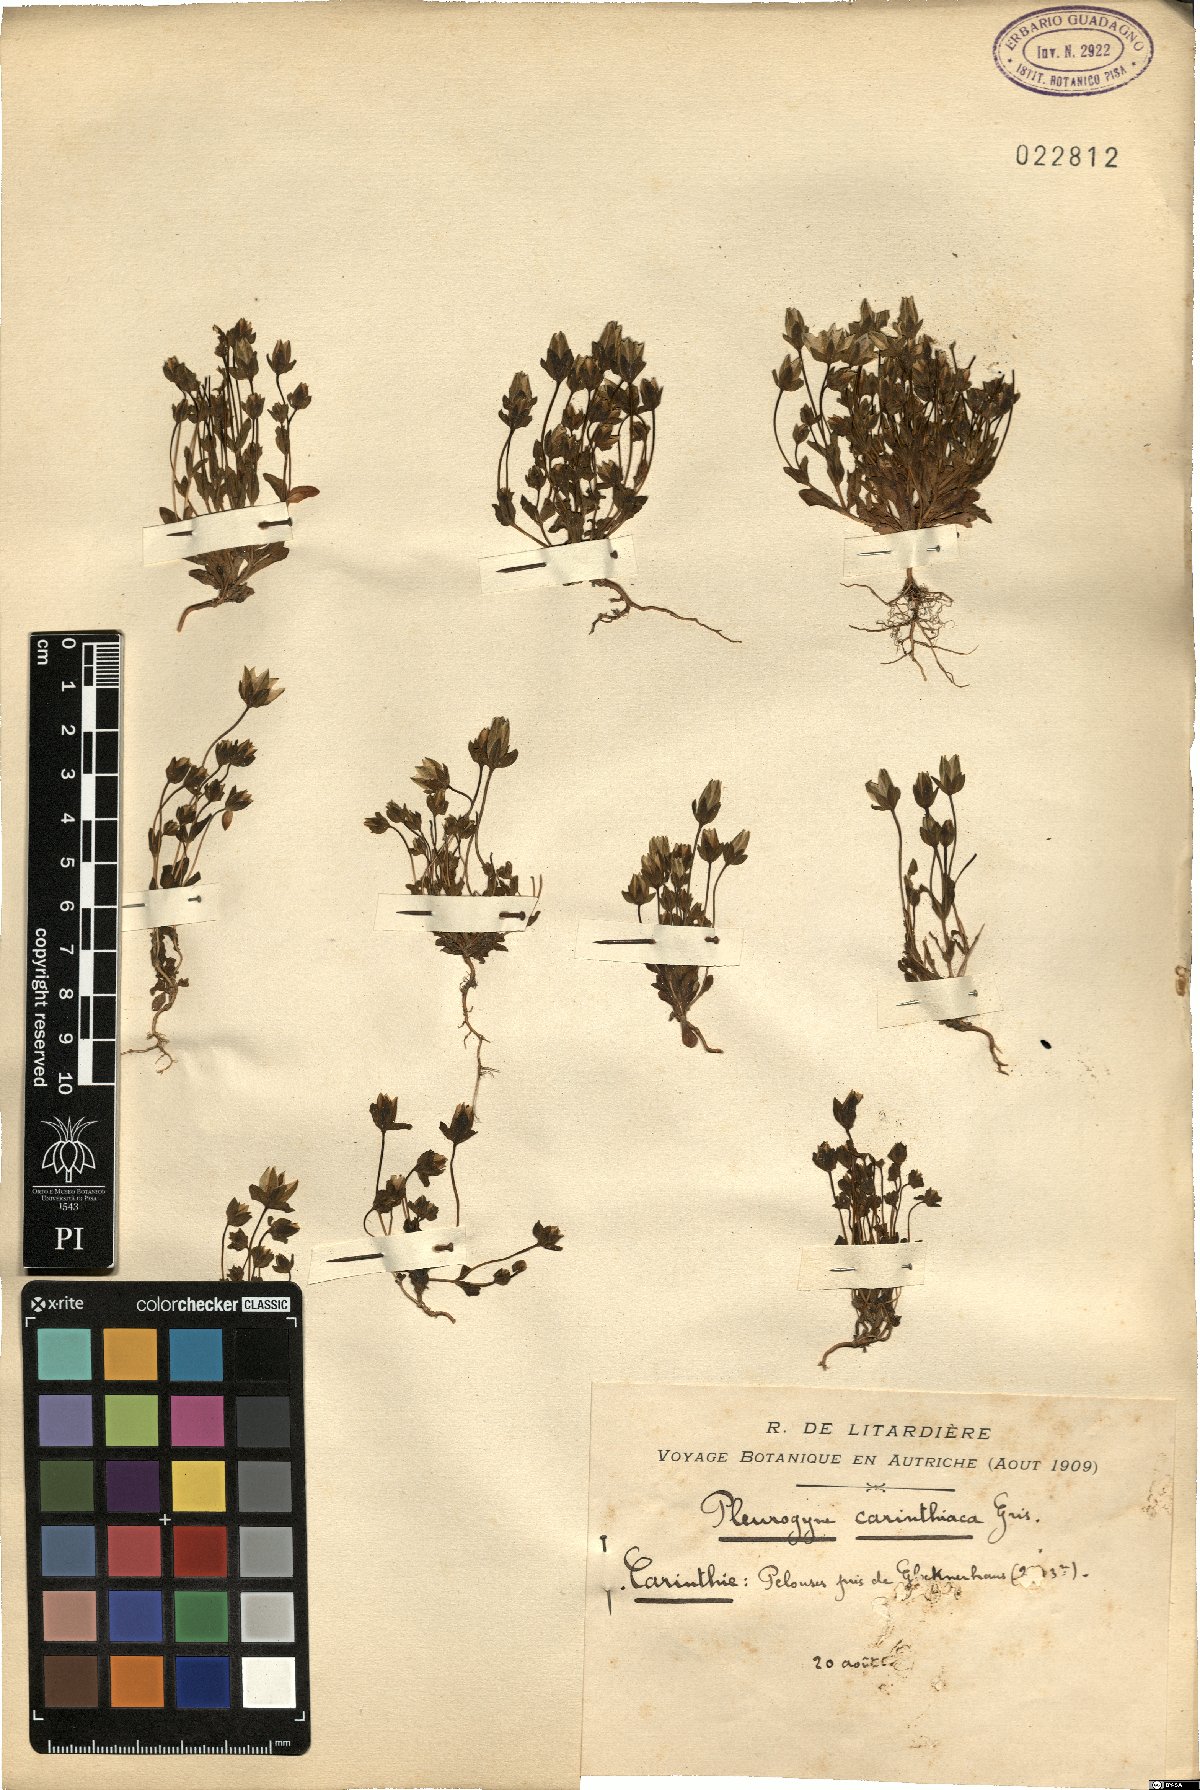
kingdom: Plantae
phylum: Tracheophyta
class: Magnoliopsida
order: Gentianales
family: Gentianaceae
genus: Lomatogonium
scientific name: Lomatogonium carinthiacum
